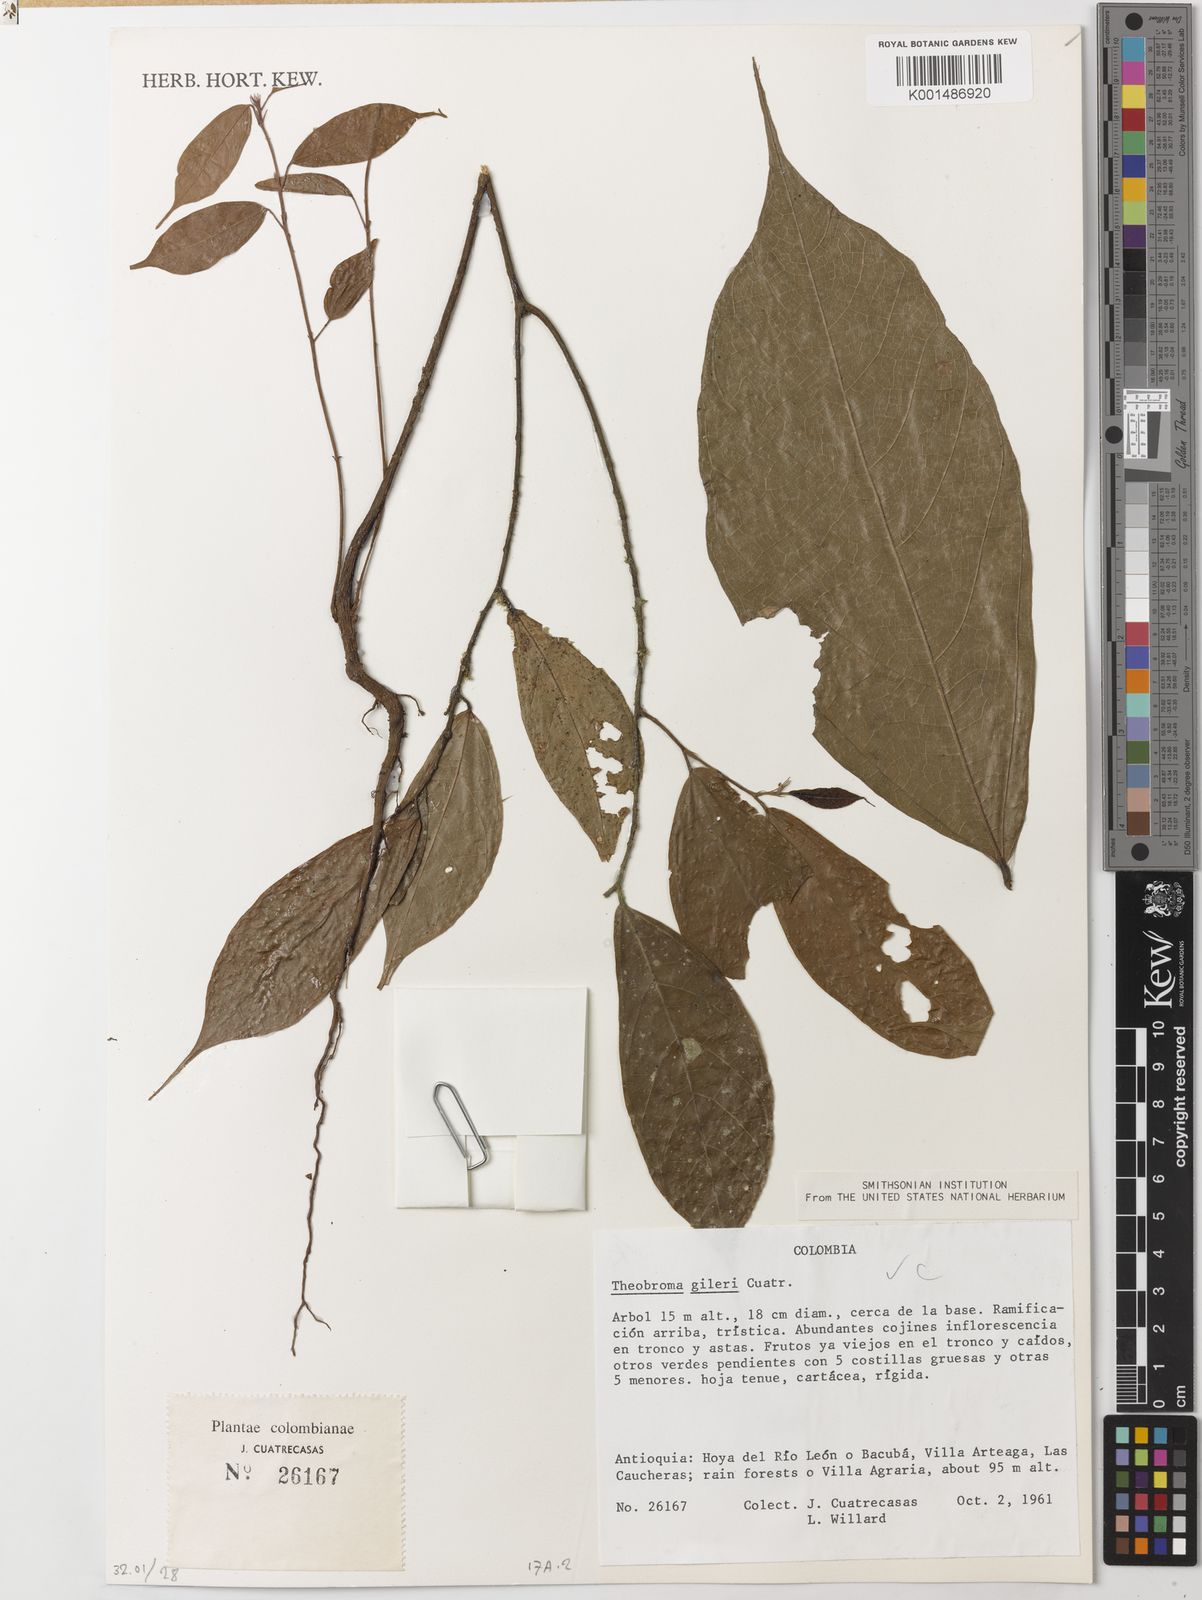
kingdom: Plantae
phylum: Tracheophyta
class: Magnoliopsida
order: Malvales
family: Malvaceae
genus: Theobroma
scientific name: Theobroma gileri
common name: Mountain cocoa
